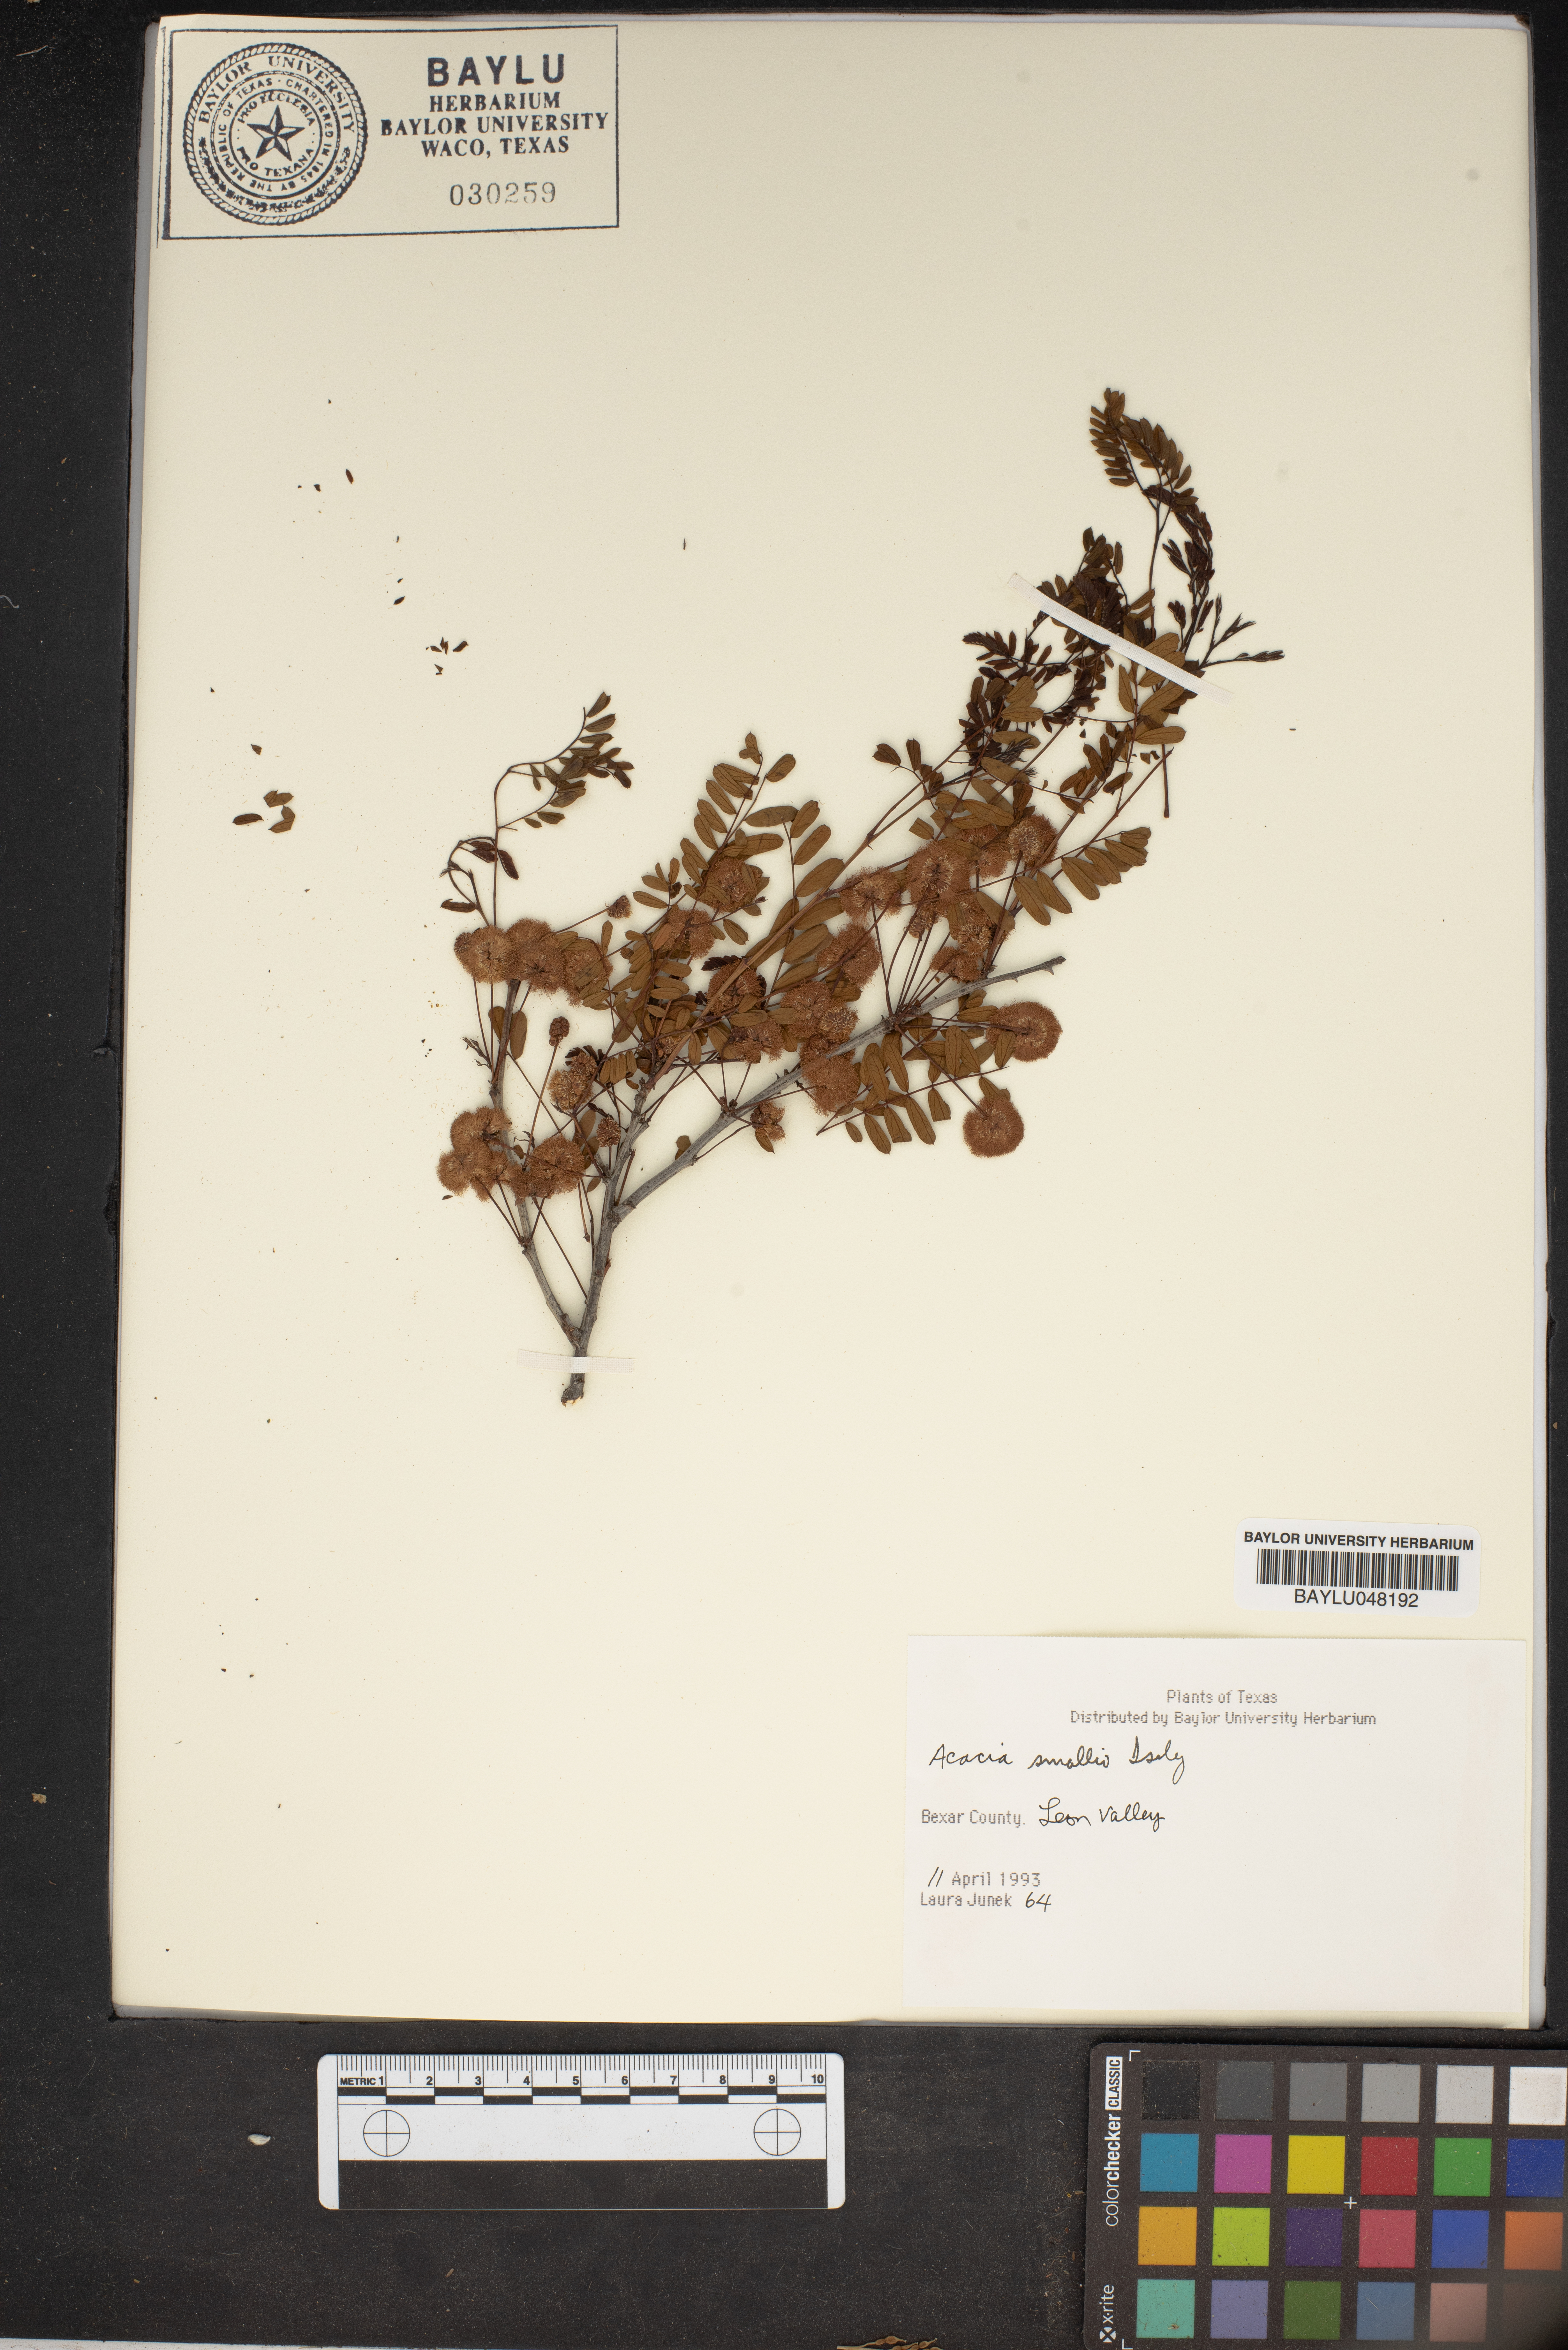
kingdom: Plantae
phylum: Tracheophyta
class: Magnoliopsida
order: Fabales
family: Fabaceae
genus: Vachellia
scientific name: Vachellia farnesiana
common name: Sweet acacia
